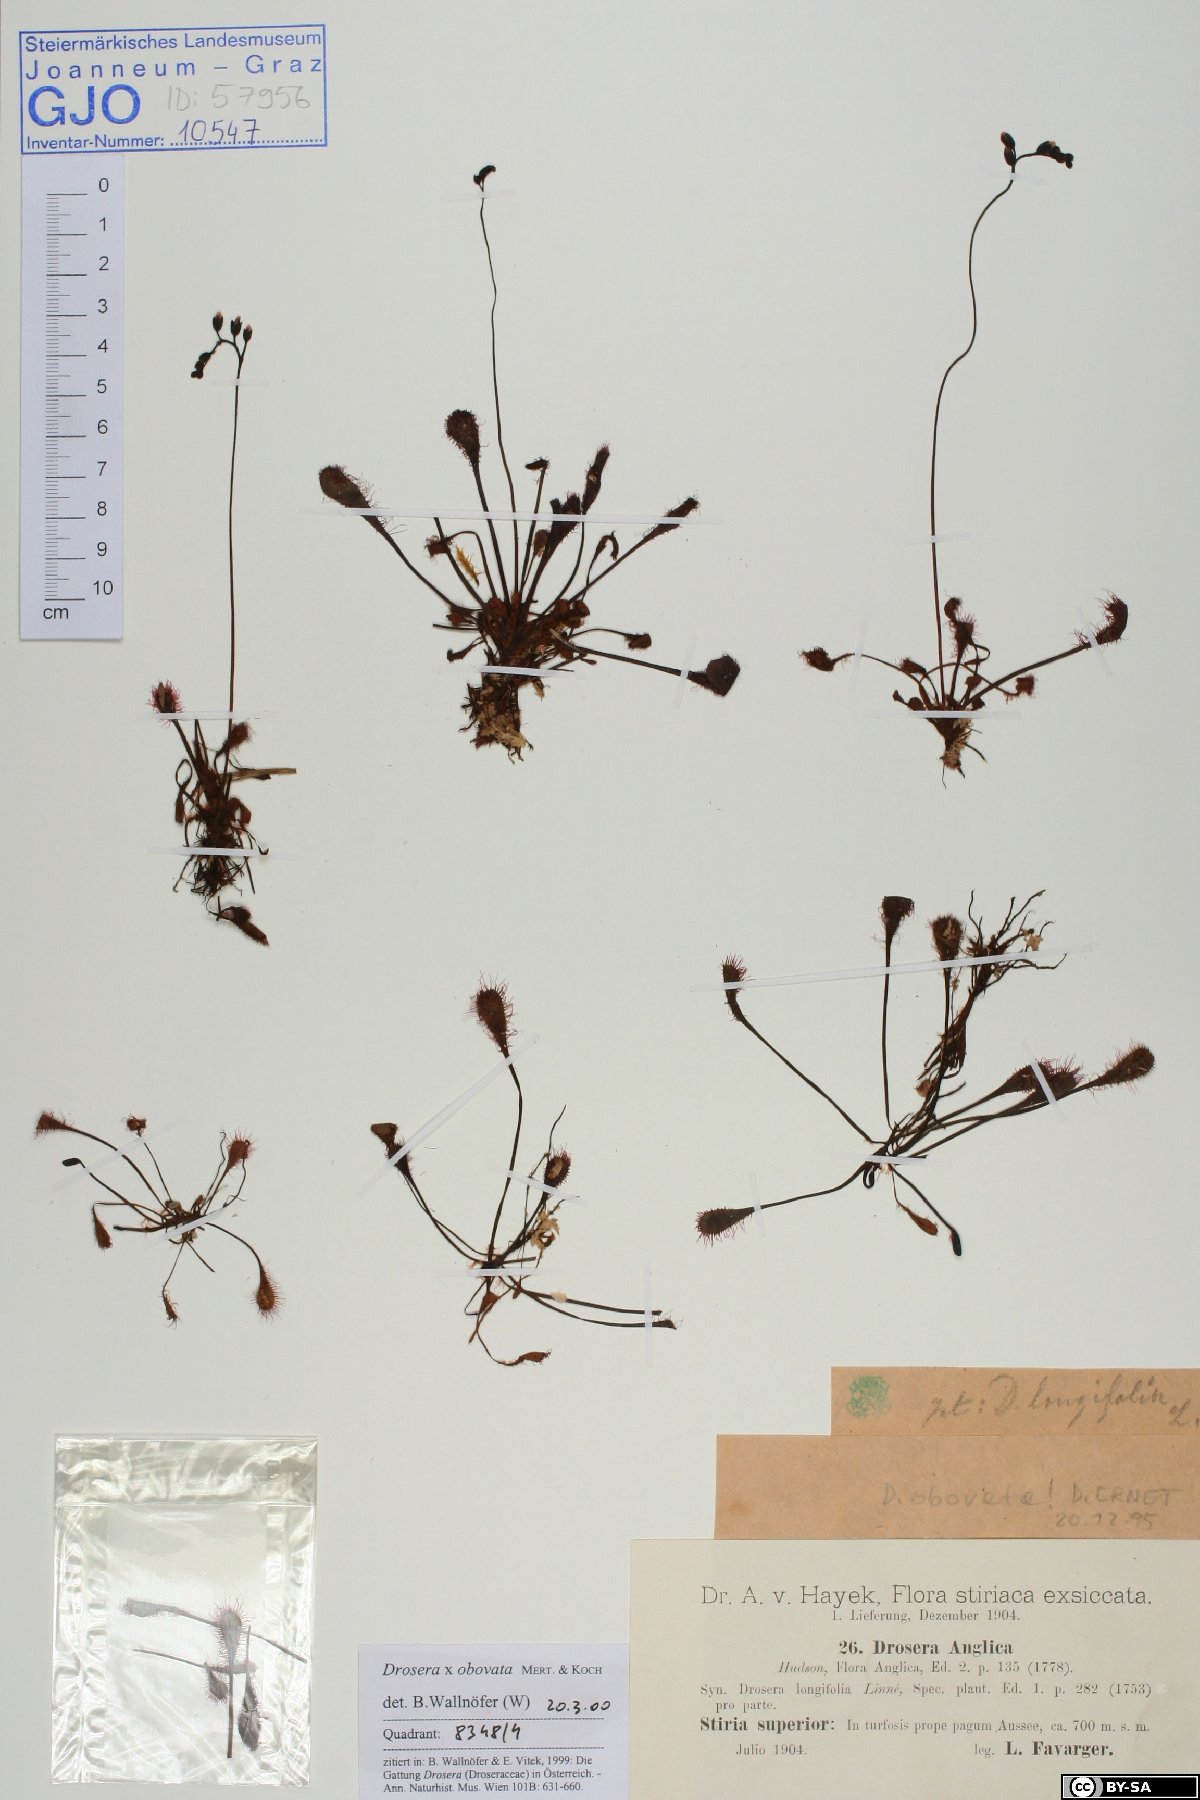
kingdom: Plantae
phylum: Tracheophyta
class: Magnoliopsida
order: Caryophyllales
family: Droseraceae
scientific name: Droseraceae
